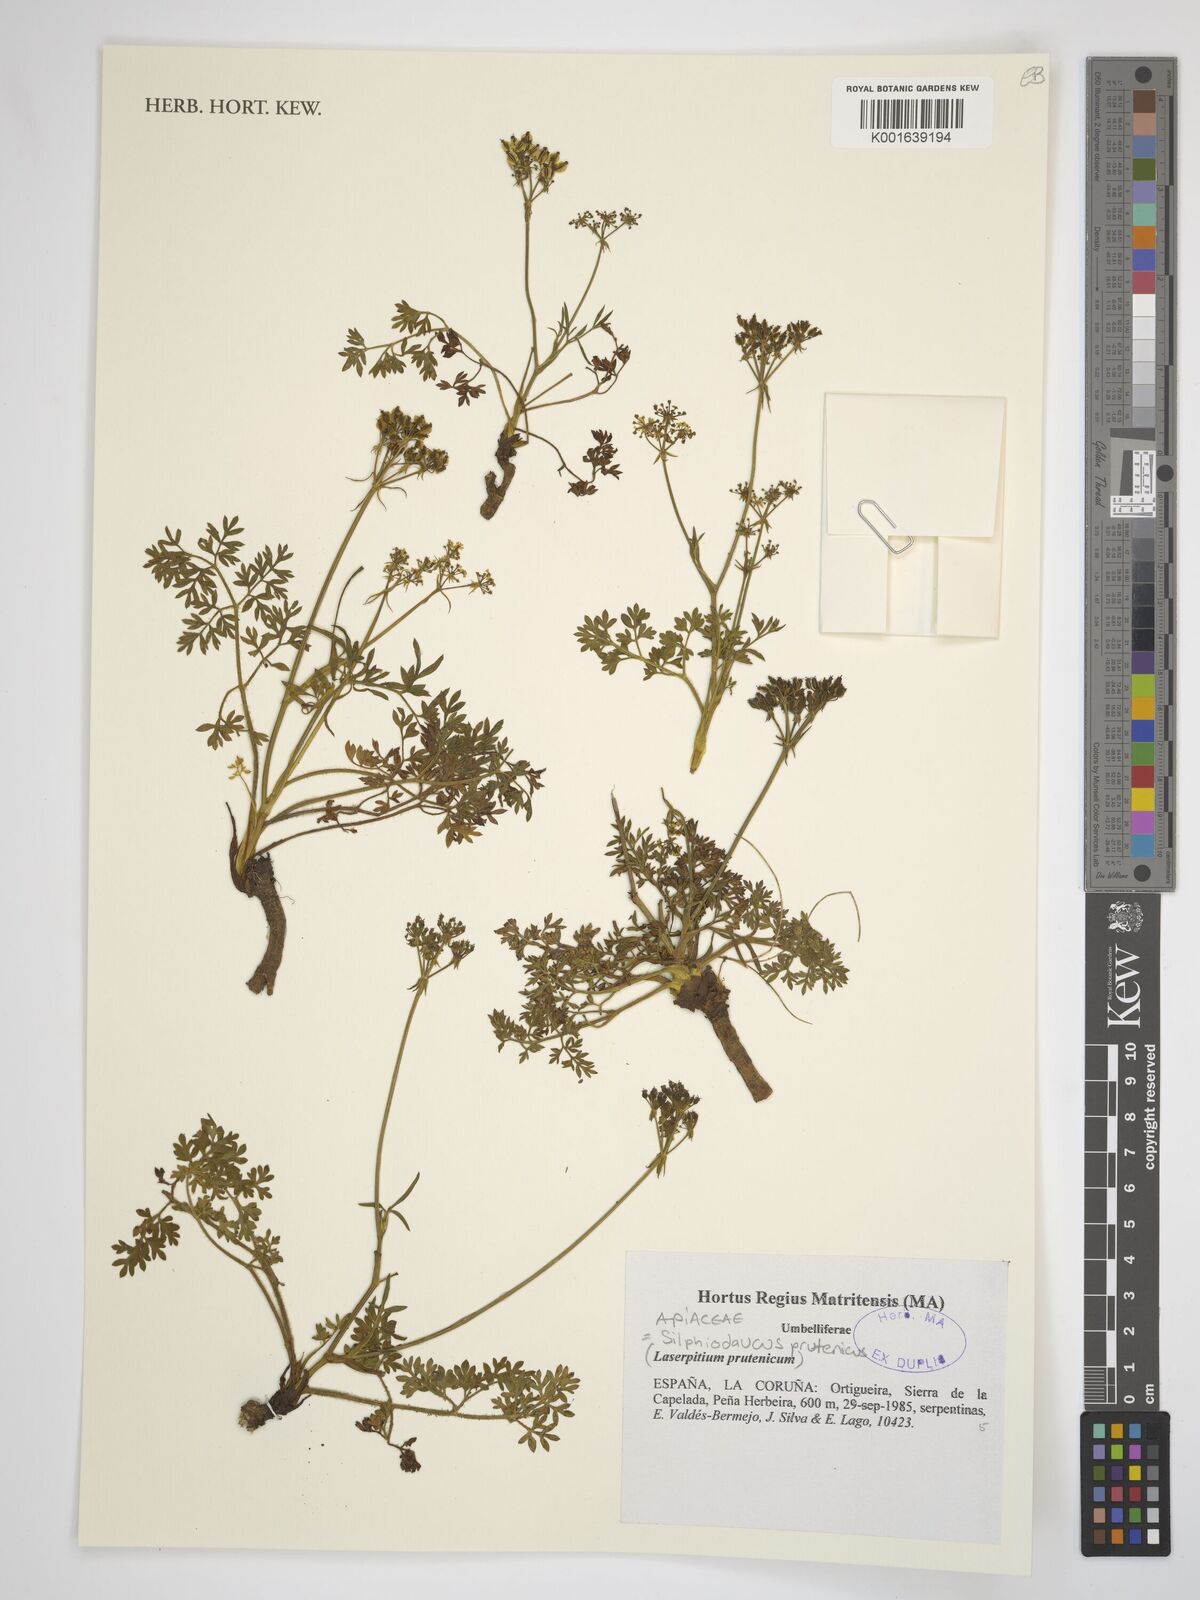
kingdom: Plantae
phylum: Tracheophyta
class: Magnoliopsida
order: Apiales
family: Apiaceae
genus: Silphiodaucus
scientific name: Silphiodaucus prutenicus
